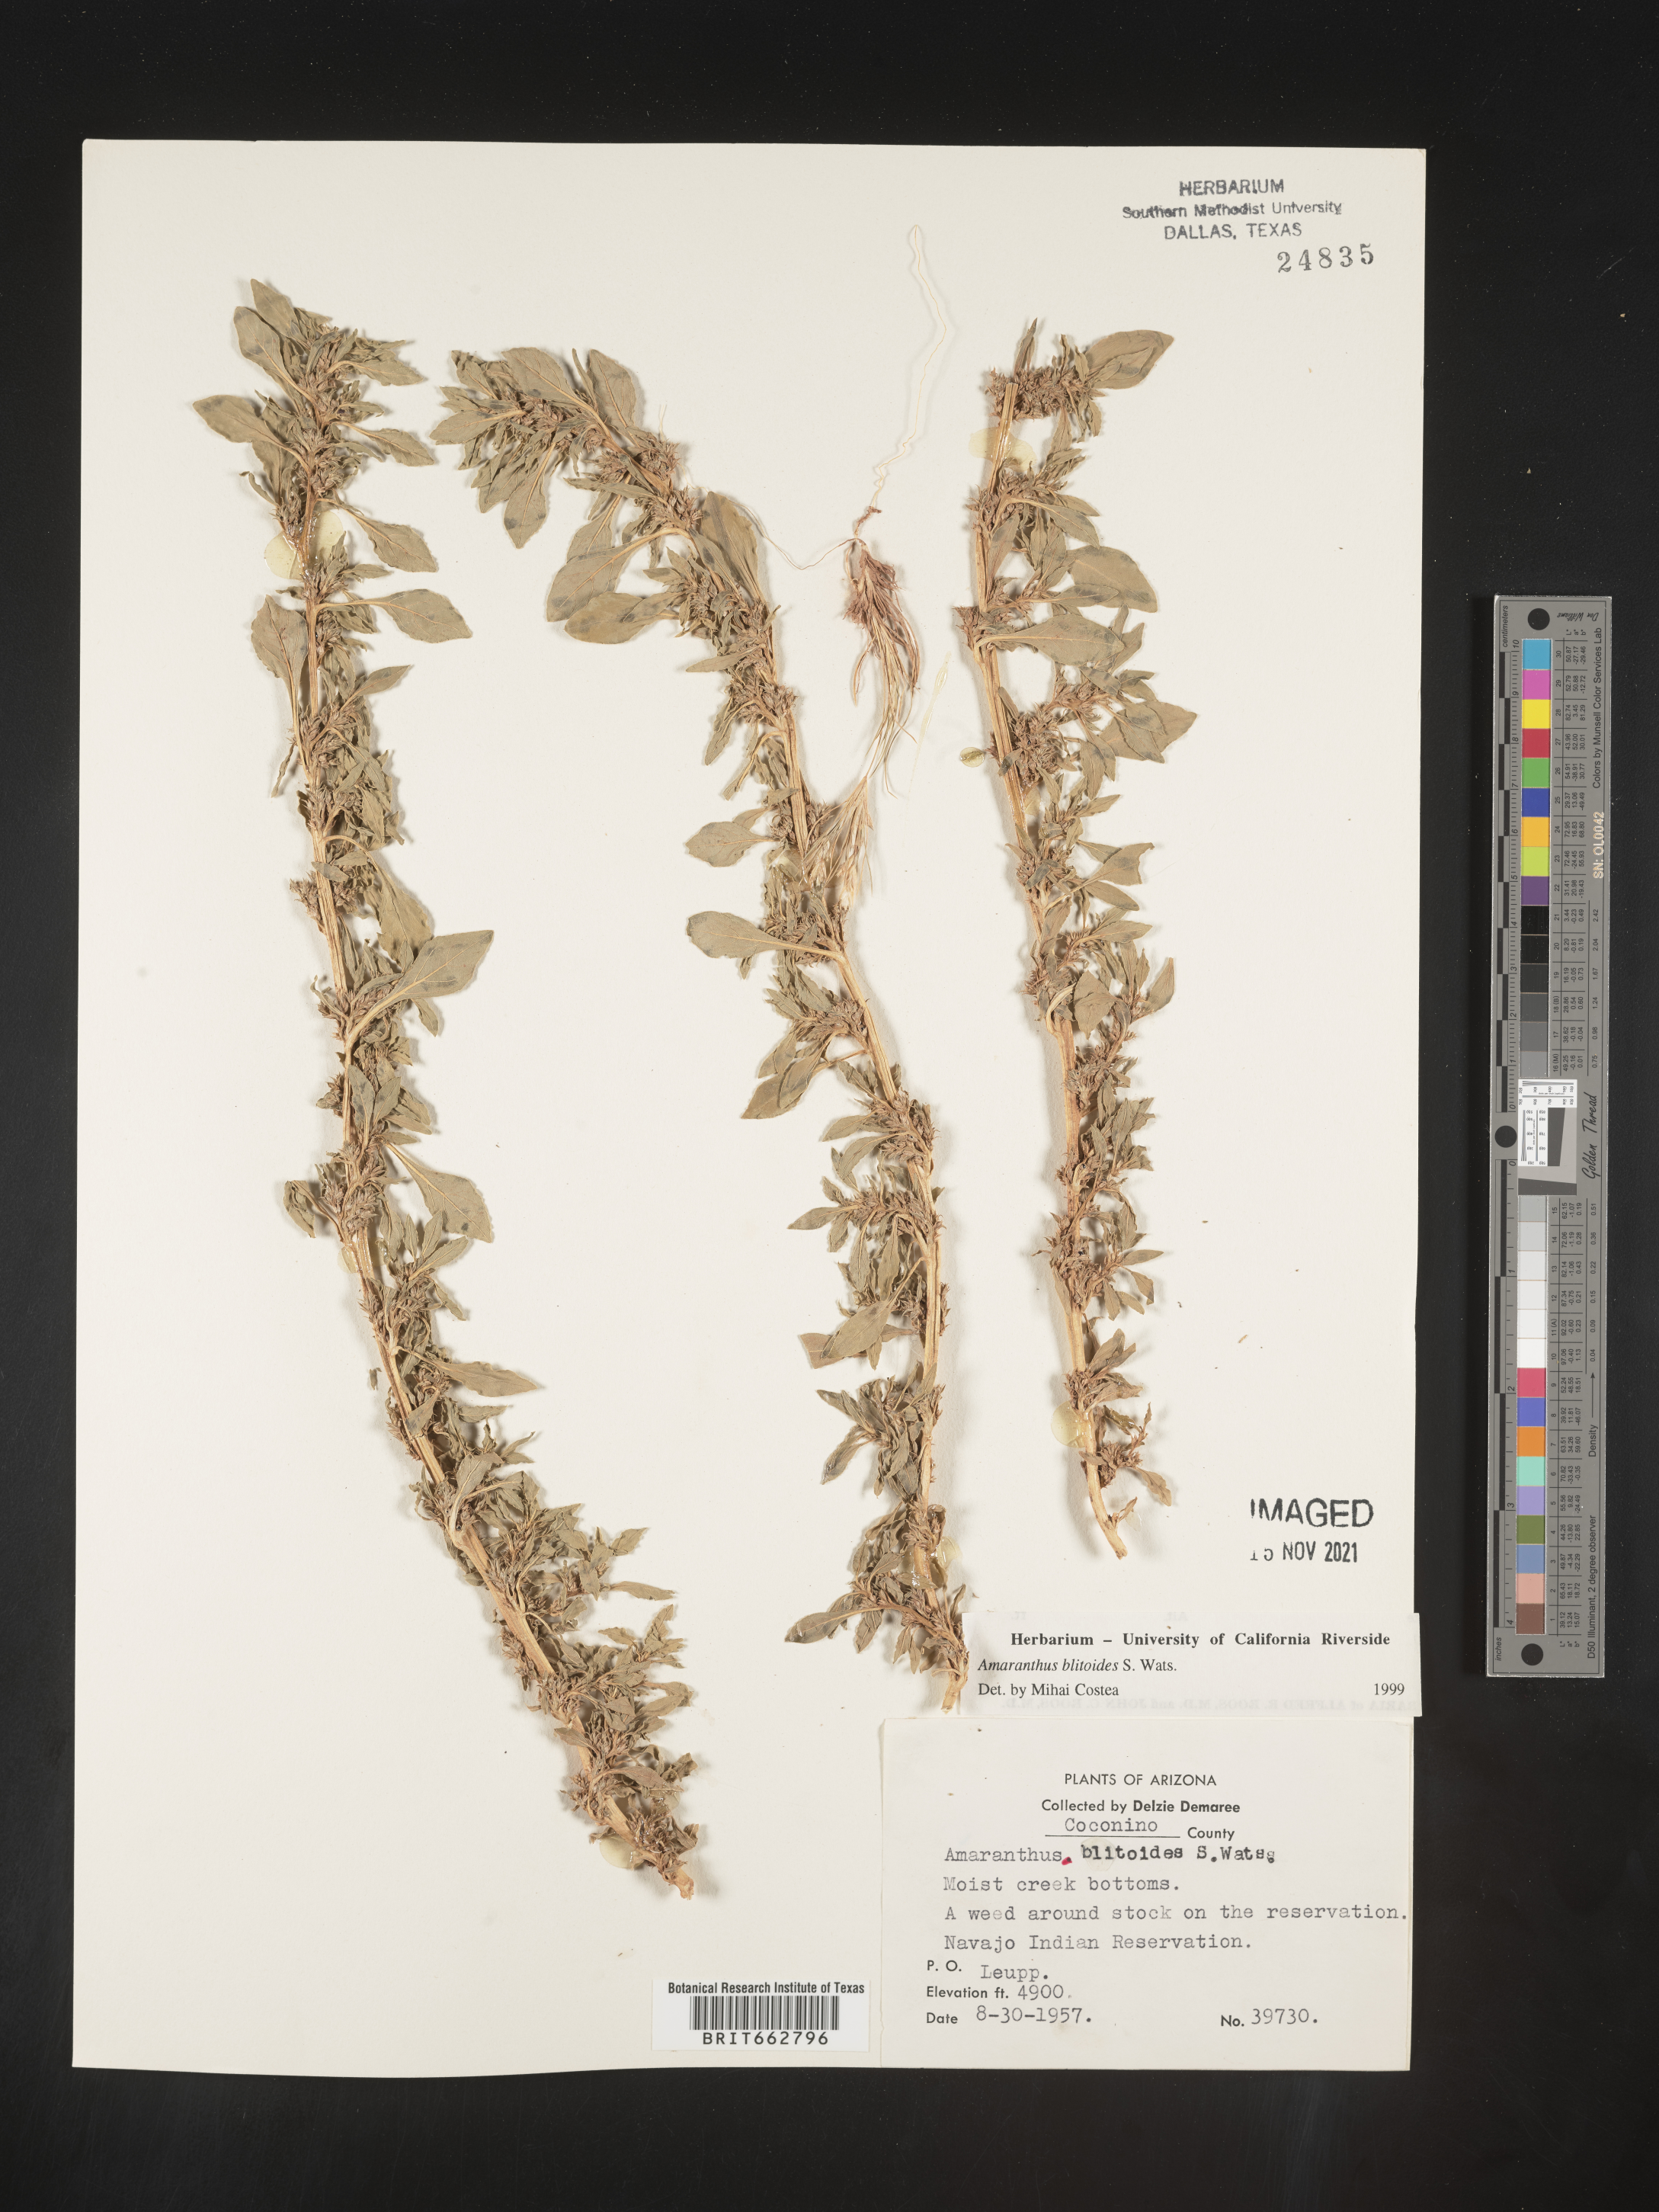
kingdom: Plantae
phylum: Tracheophyta
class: Magnoliopsida
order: Caryophyllales
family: Amaranthaceae
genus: Amaranthus
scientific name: Amaranthus blitoides
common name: Prostrate pigweed
